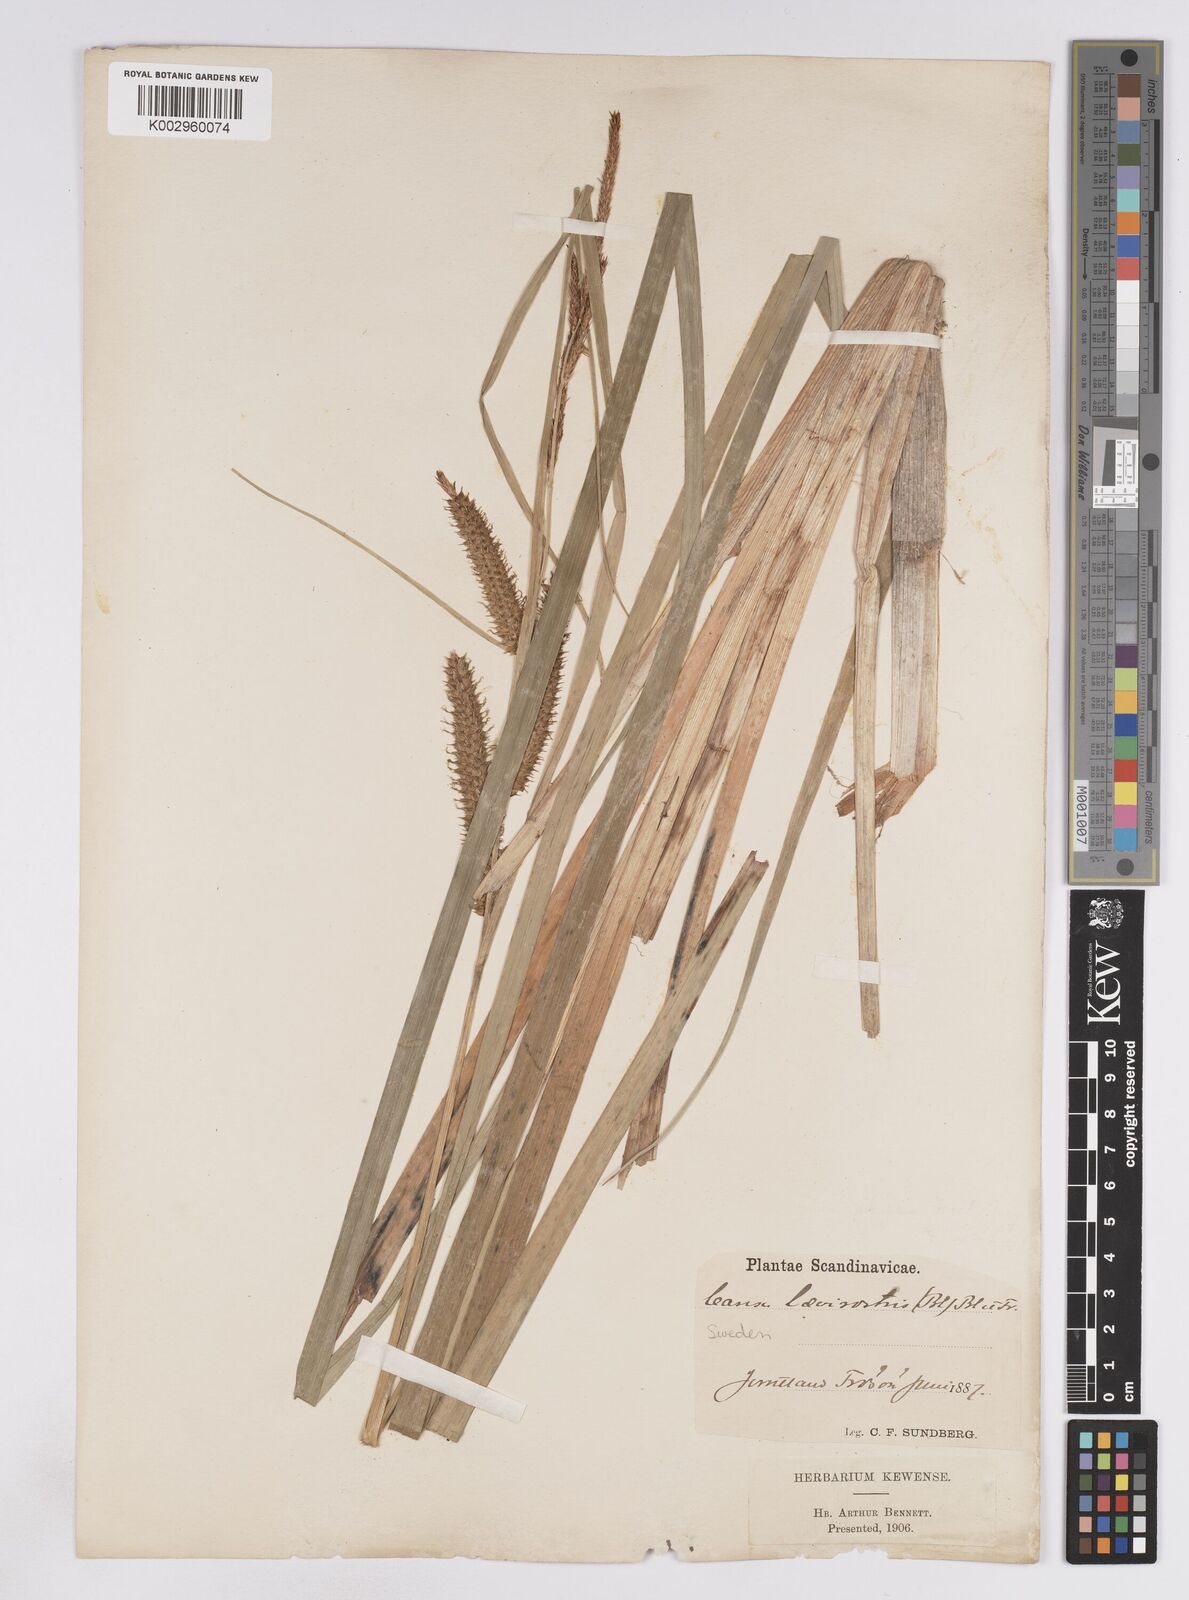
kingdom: Plantae
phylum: Tracheophyta
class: Liliopsida
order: Poales
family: Cyperaceae
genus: Carex
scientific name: Carex utriculata
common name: Beaked sedge
